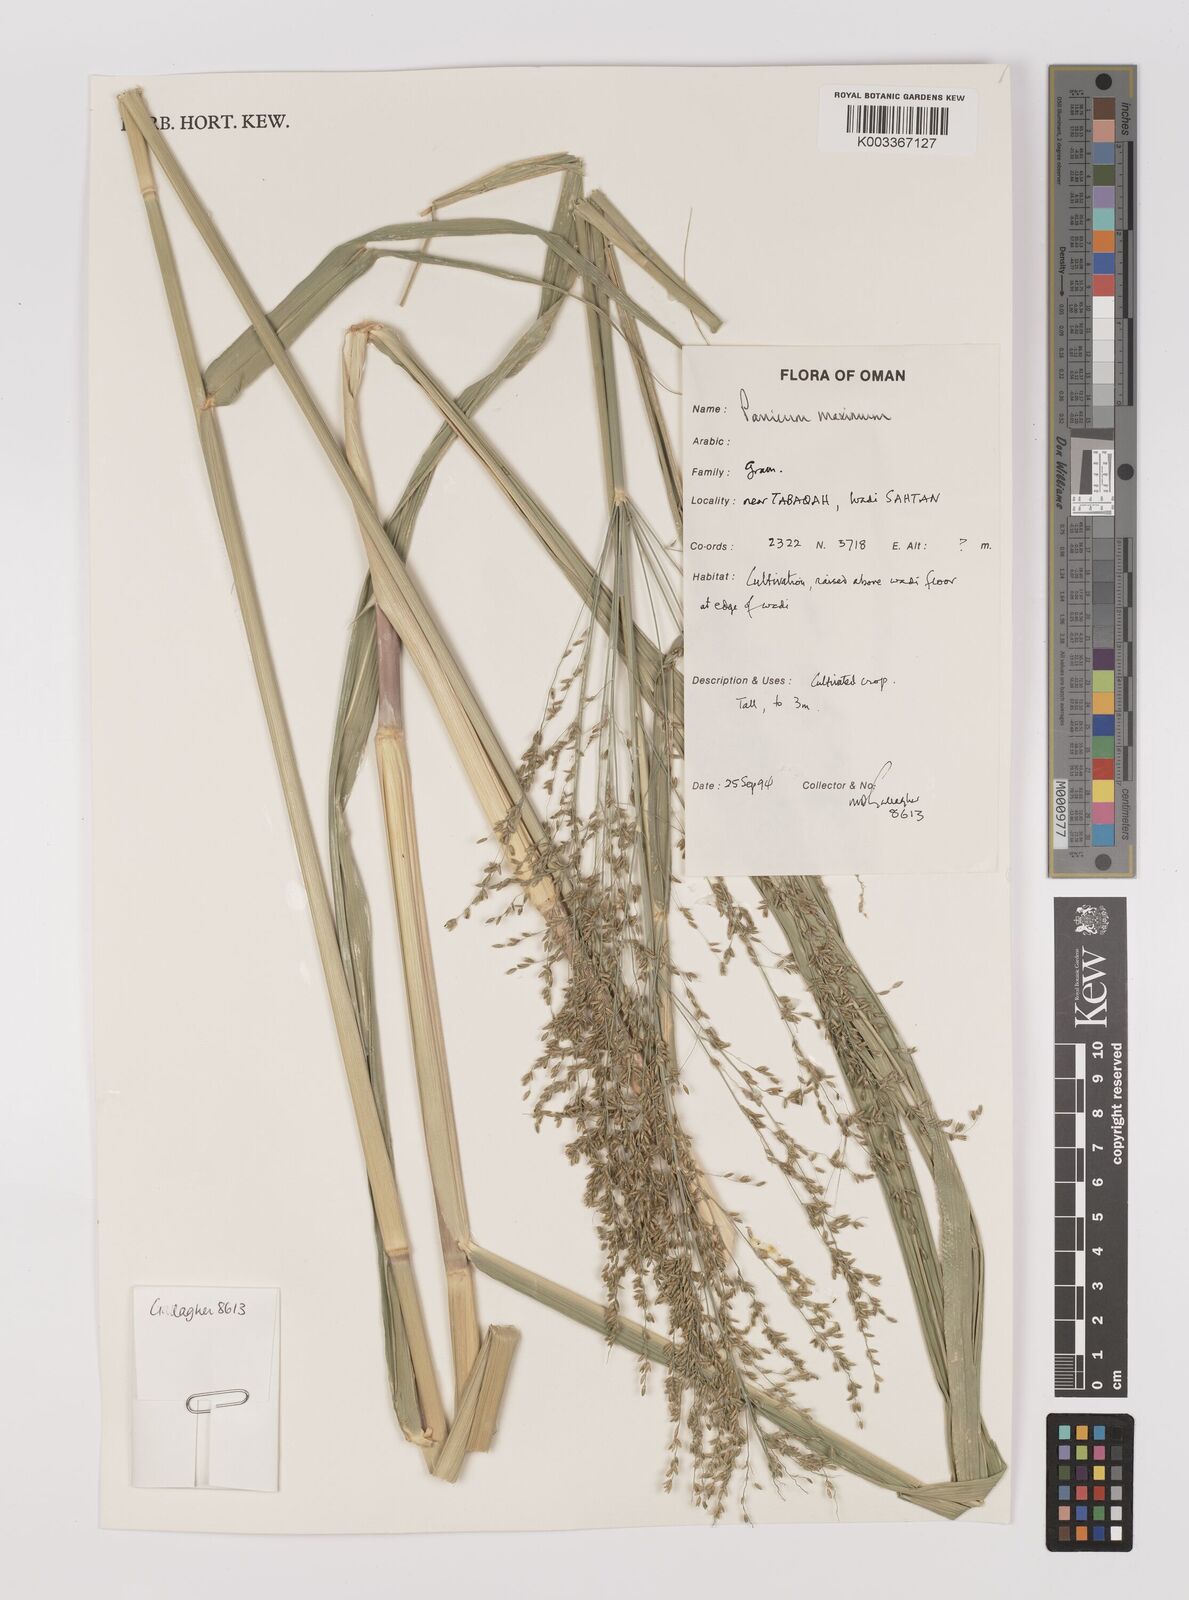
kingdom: Plantae
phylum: Tracheophyta
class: Liliopsida
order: Poales
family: Poaceae
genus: Megathyrsus
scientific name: Megathyrsus maximus
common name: Guineagrass
